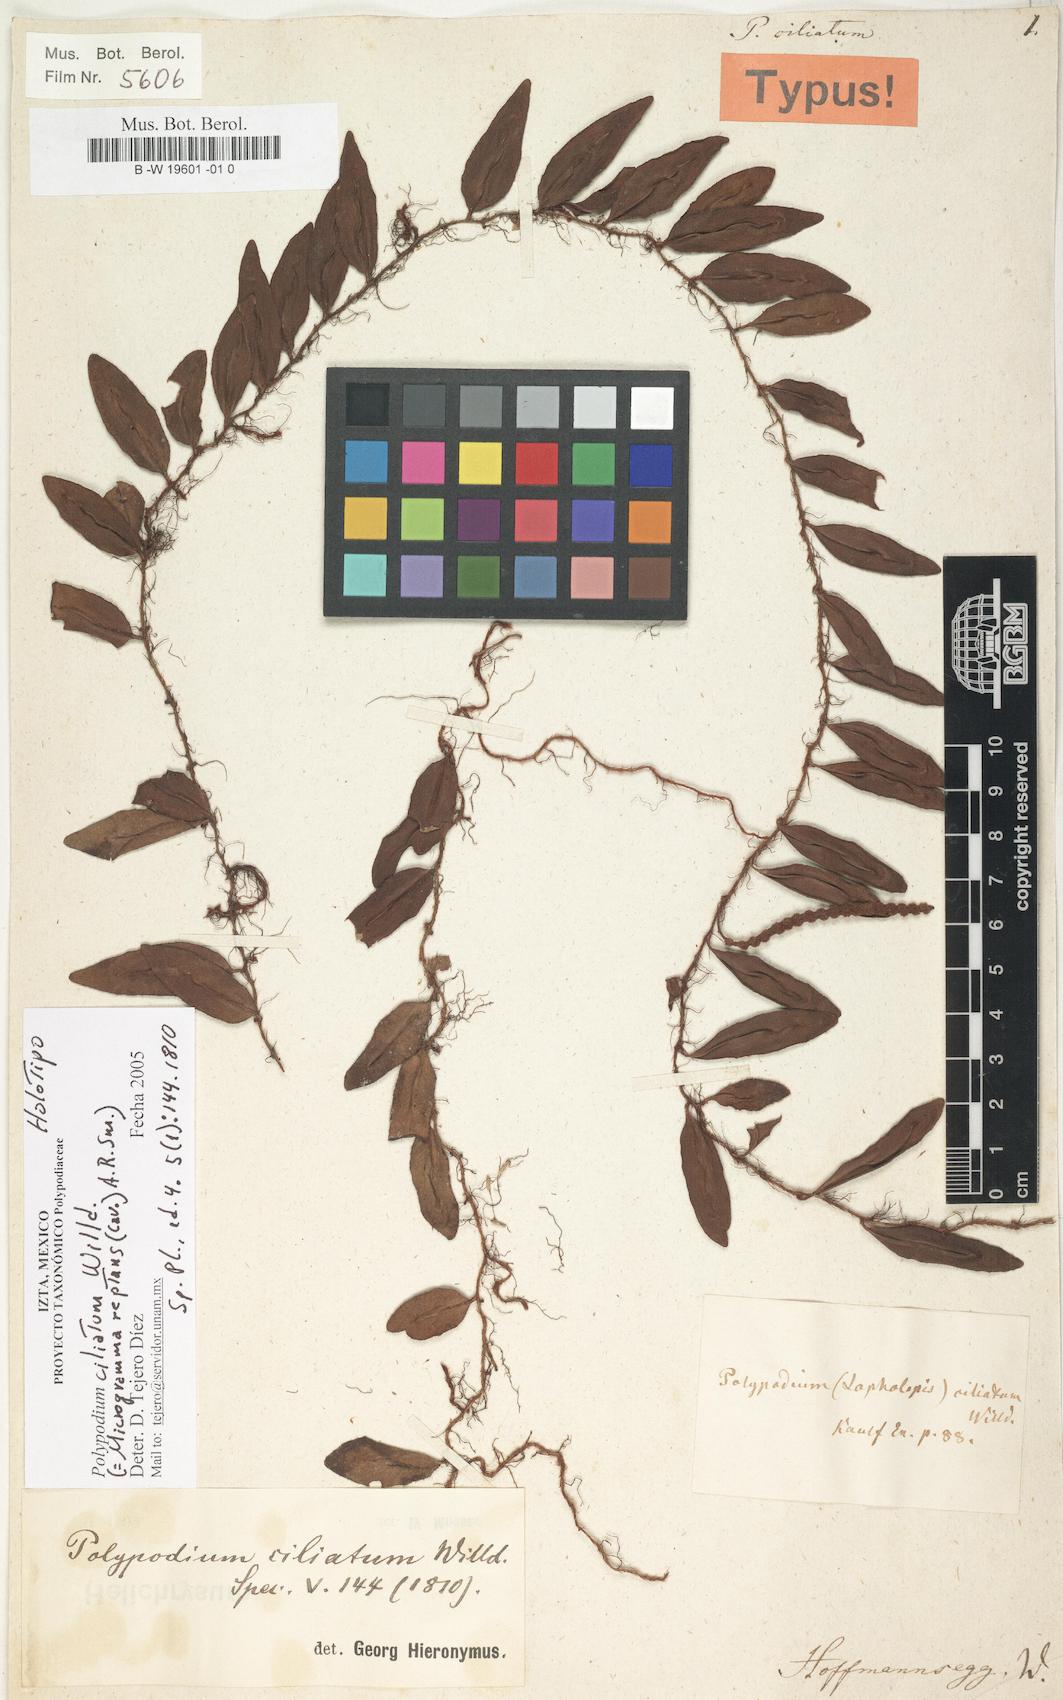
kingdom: Plantae
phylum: Tracheophyta
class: Polypodiopsida
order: Polypodiales
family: Polypodiaceae
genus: Microgramma
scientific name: Microgramma reptans
